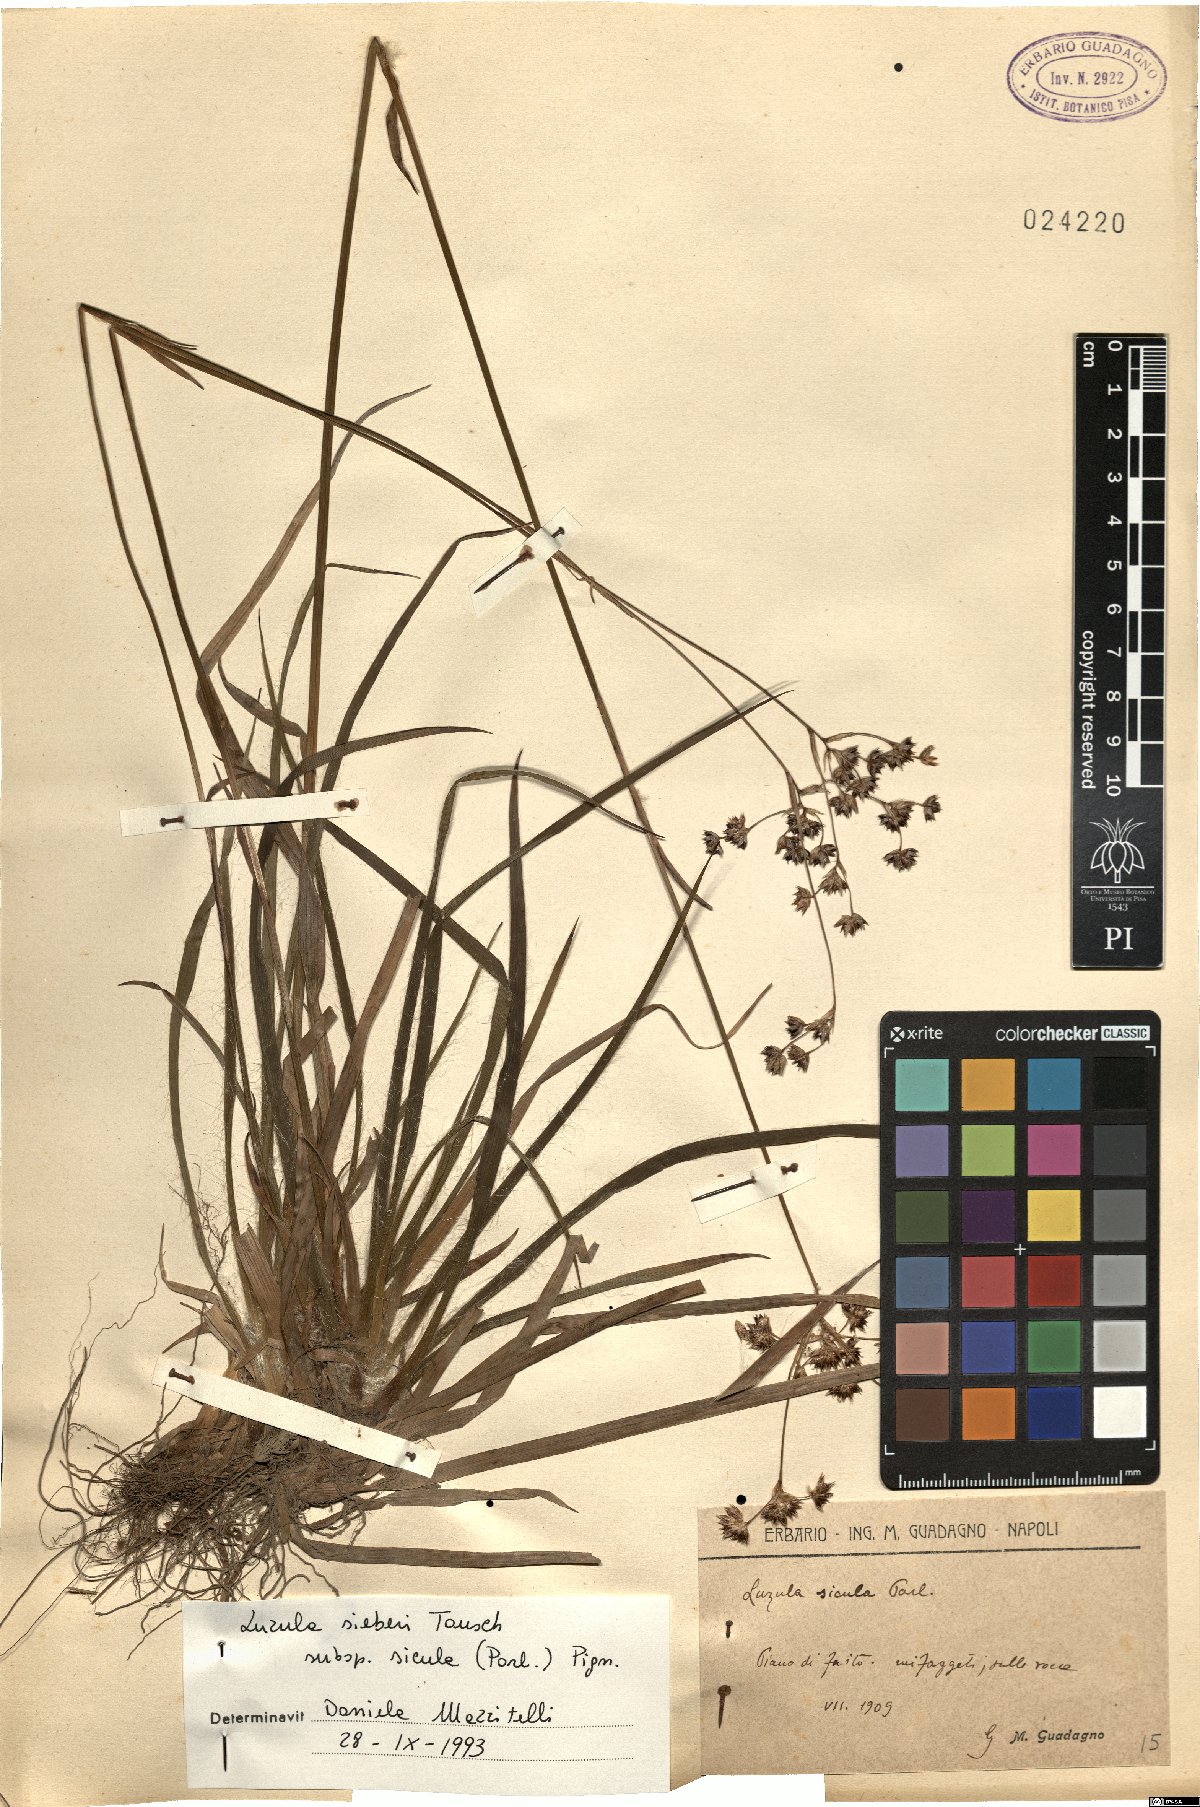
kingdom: Plantae
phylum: Tracheophyta
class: Liliopsida
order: Poales
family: Juncaceae
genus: Luzula
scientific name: Luzula sylvatica
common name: Great wood-rush
